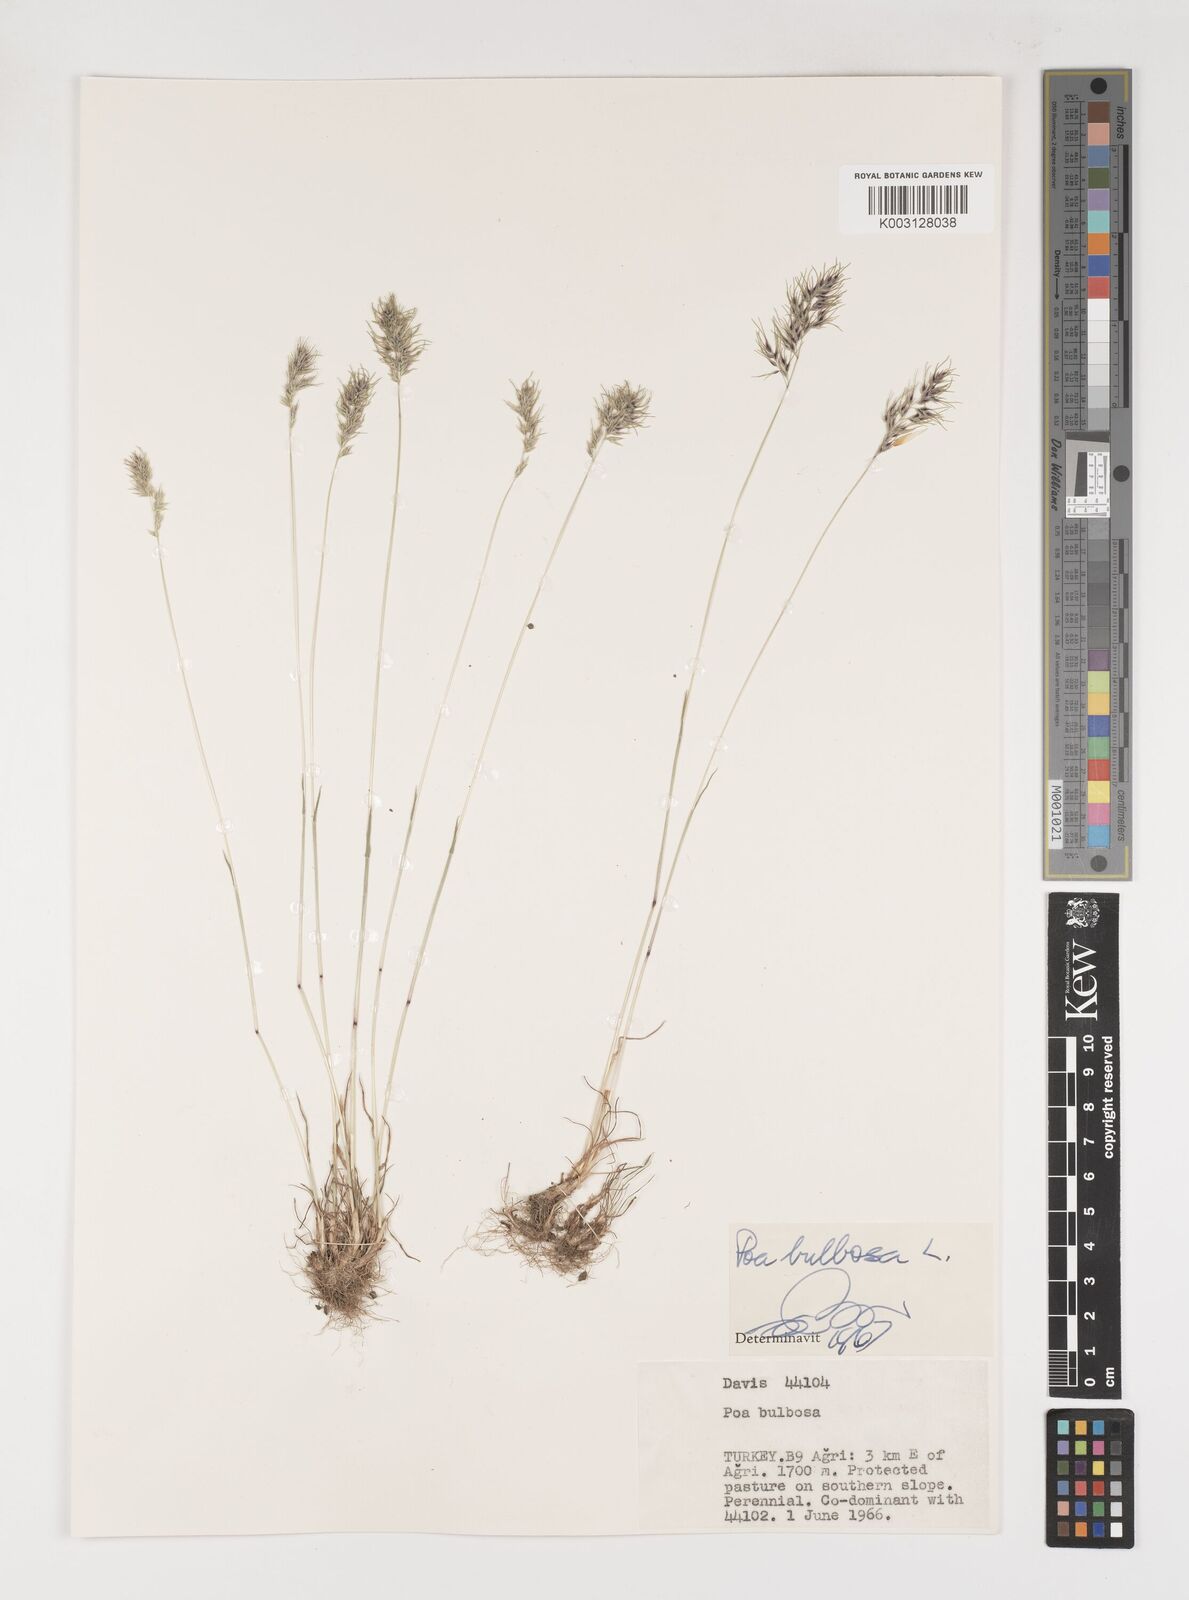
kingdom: Plantae
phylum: Tracheophyta
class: Liliopsida
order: Poales
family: Poaceae
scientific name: Poaceae
